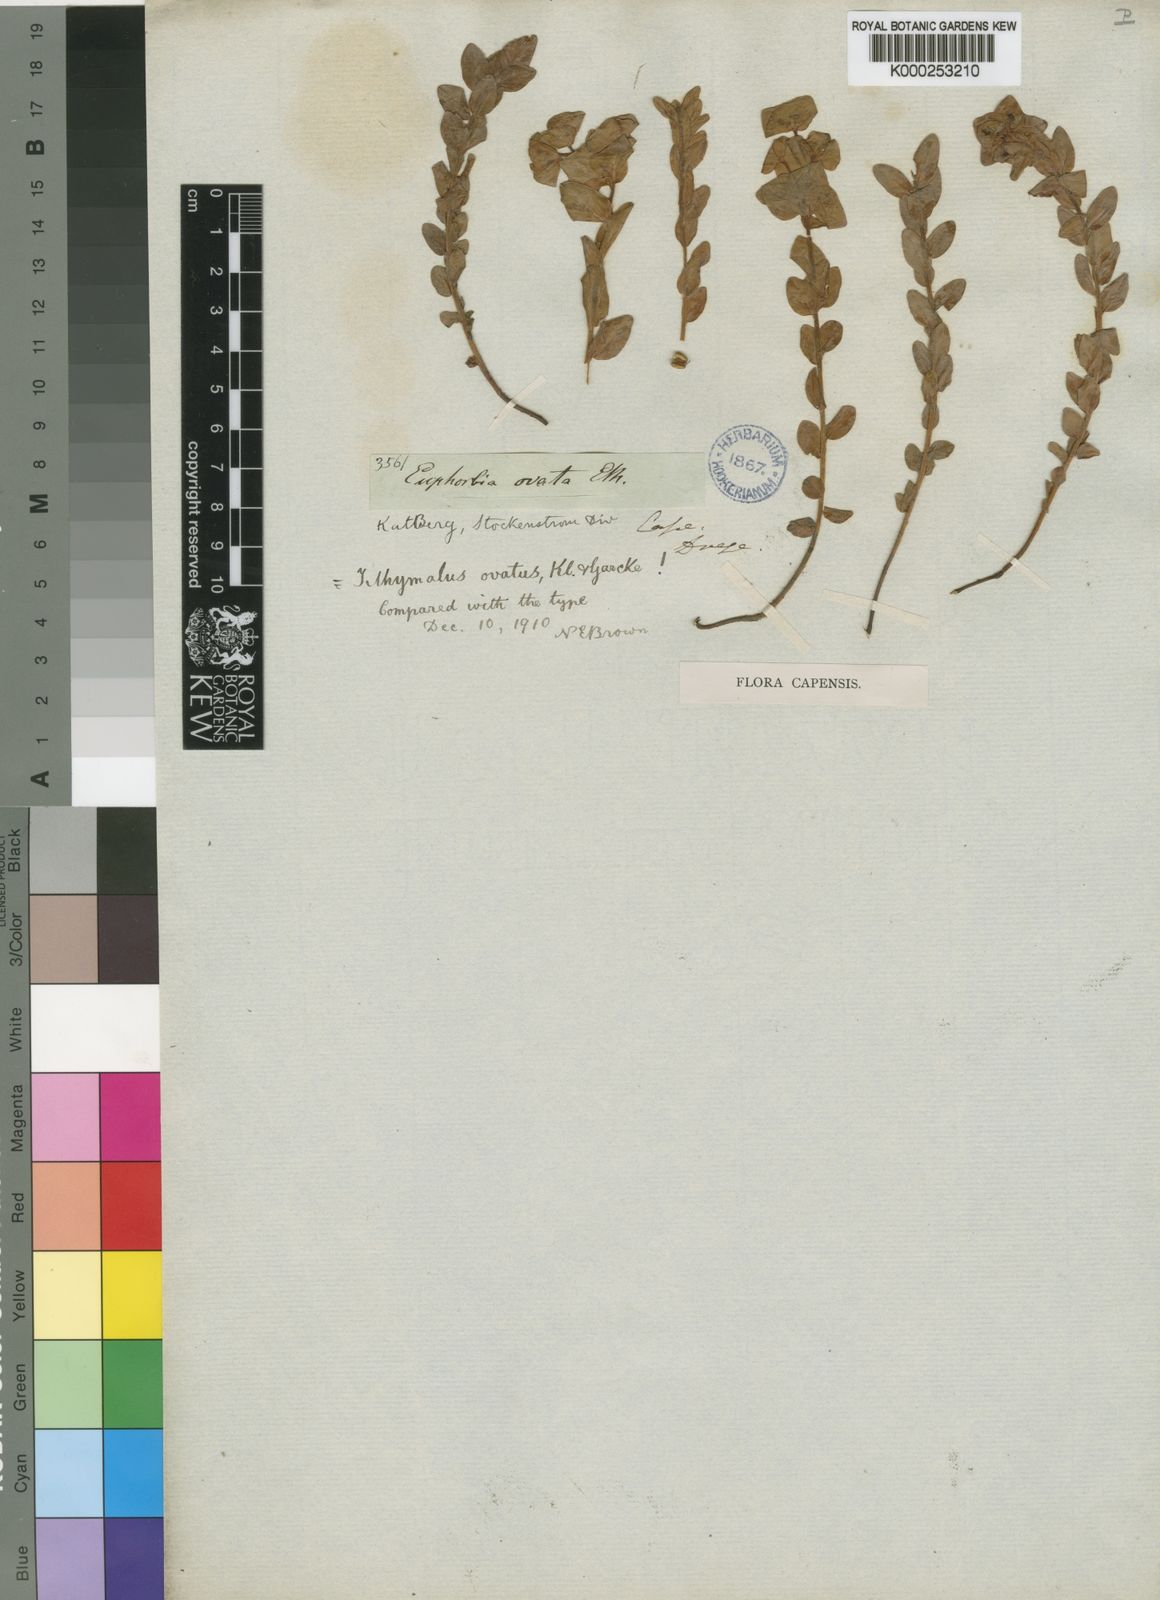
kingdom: Plantae
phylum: Tracheophyta
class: Magnoliopsida
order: Malpighiales
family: Euphorbiaceae
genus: Euphorbia
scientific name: Euphorbia
